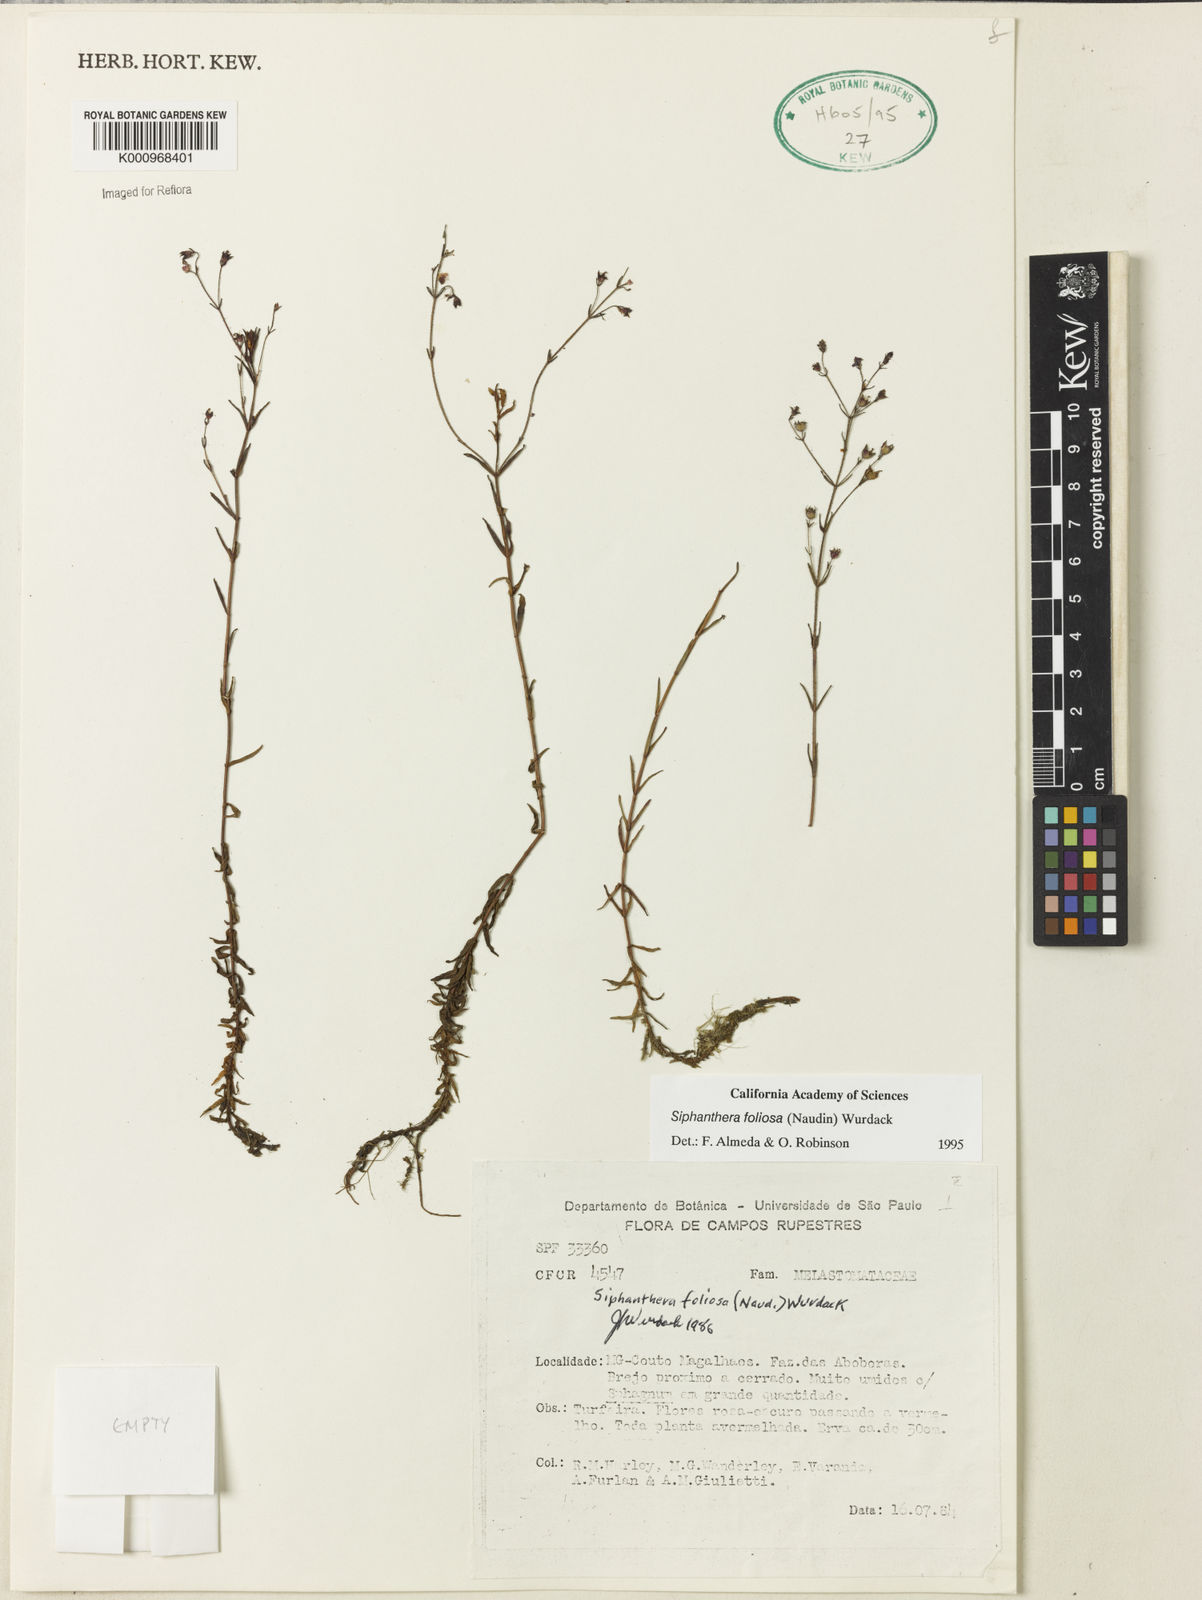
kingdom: Plantae
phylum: Tracheophyta
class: Magnoliopsida
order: Myrtales
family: Melastomataceae
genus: Siphanthera
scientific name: Siphanthera foliosa
